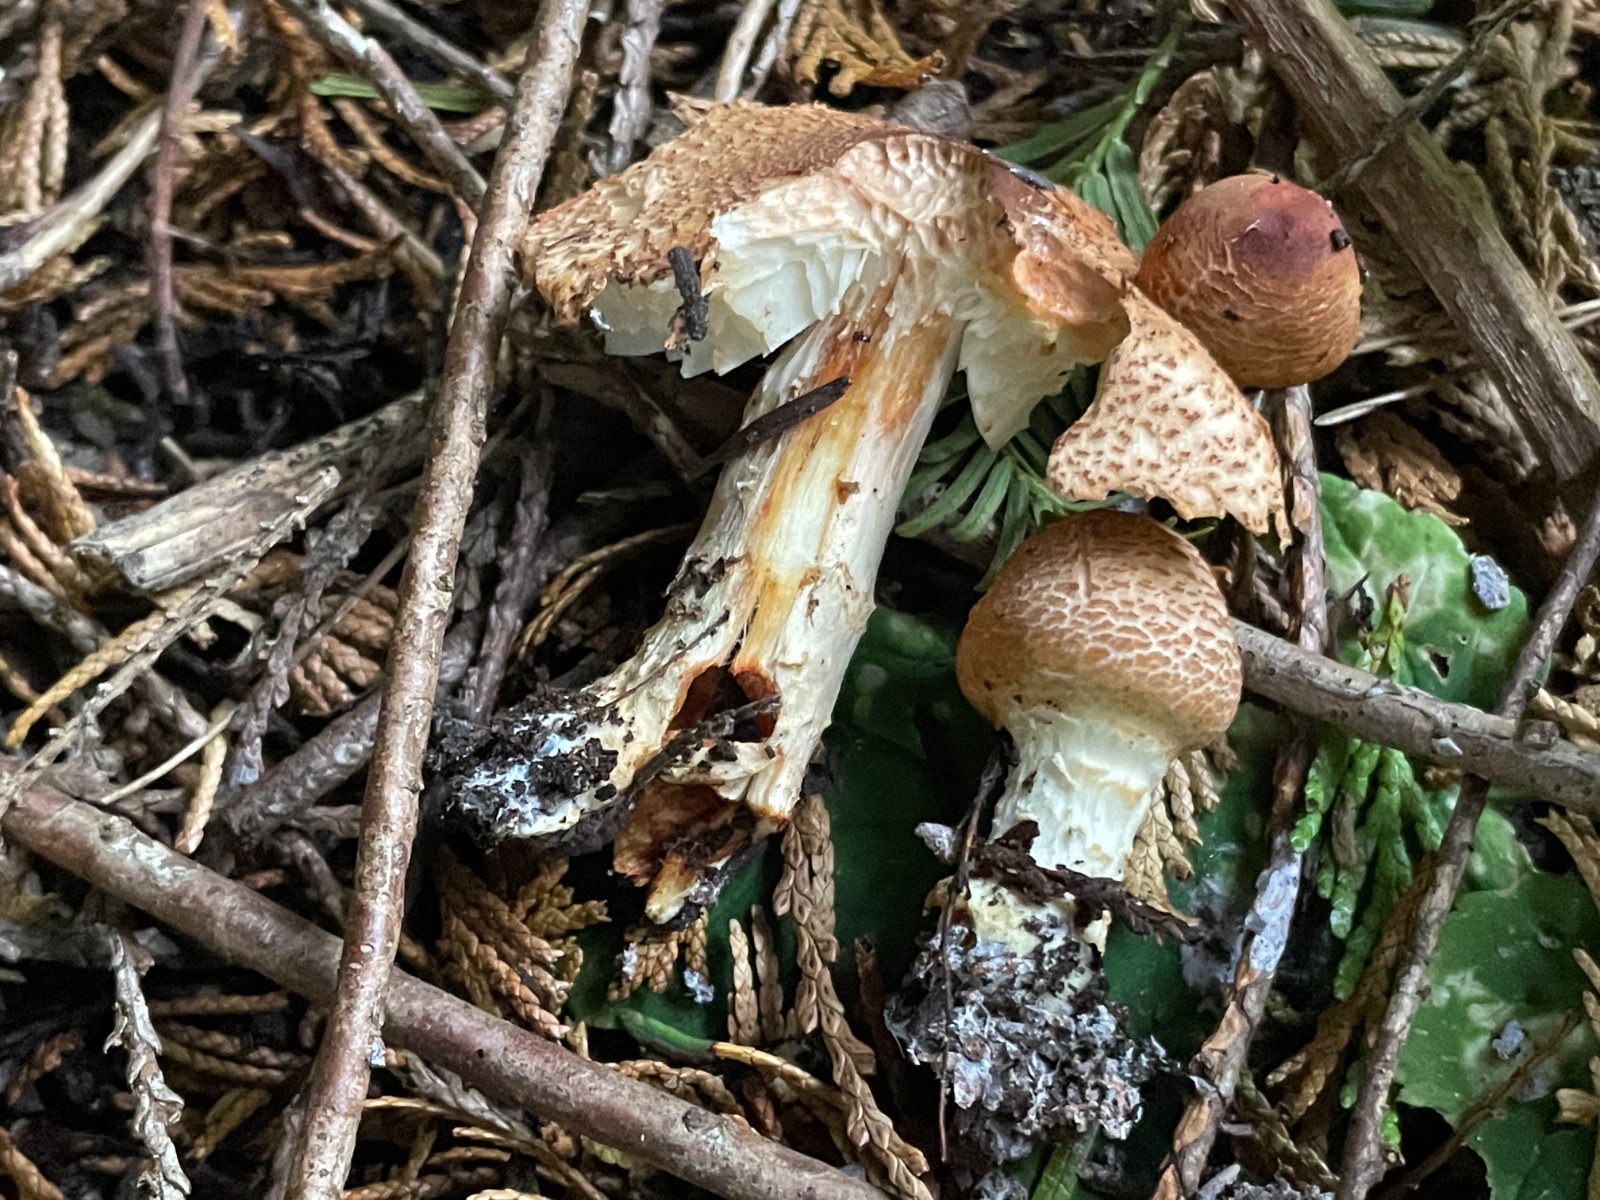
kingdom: Fungi
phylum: Basidiomycota
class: Agaricomycetes
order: Agaricales
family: Agaricaceae
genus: Lepiota
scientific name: Lepiota ochraceofulva
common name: sødtduftende parasolhat
